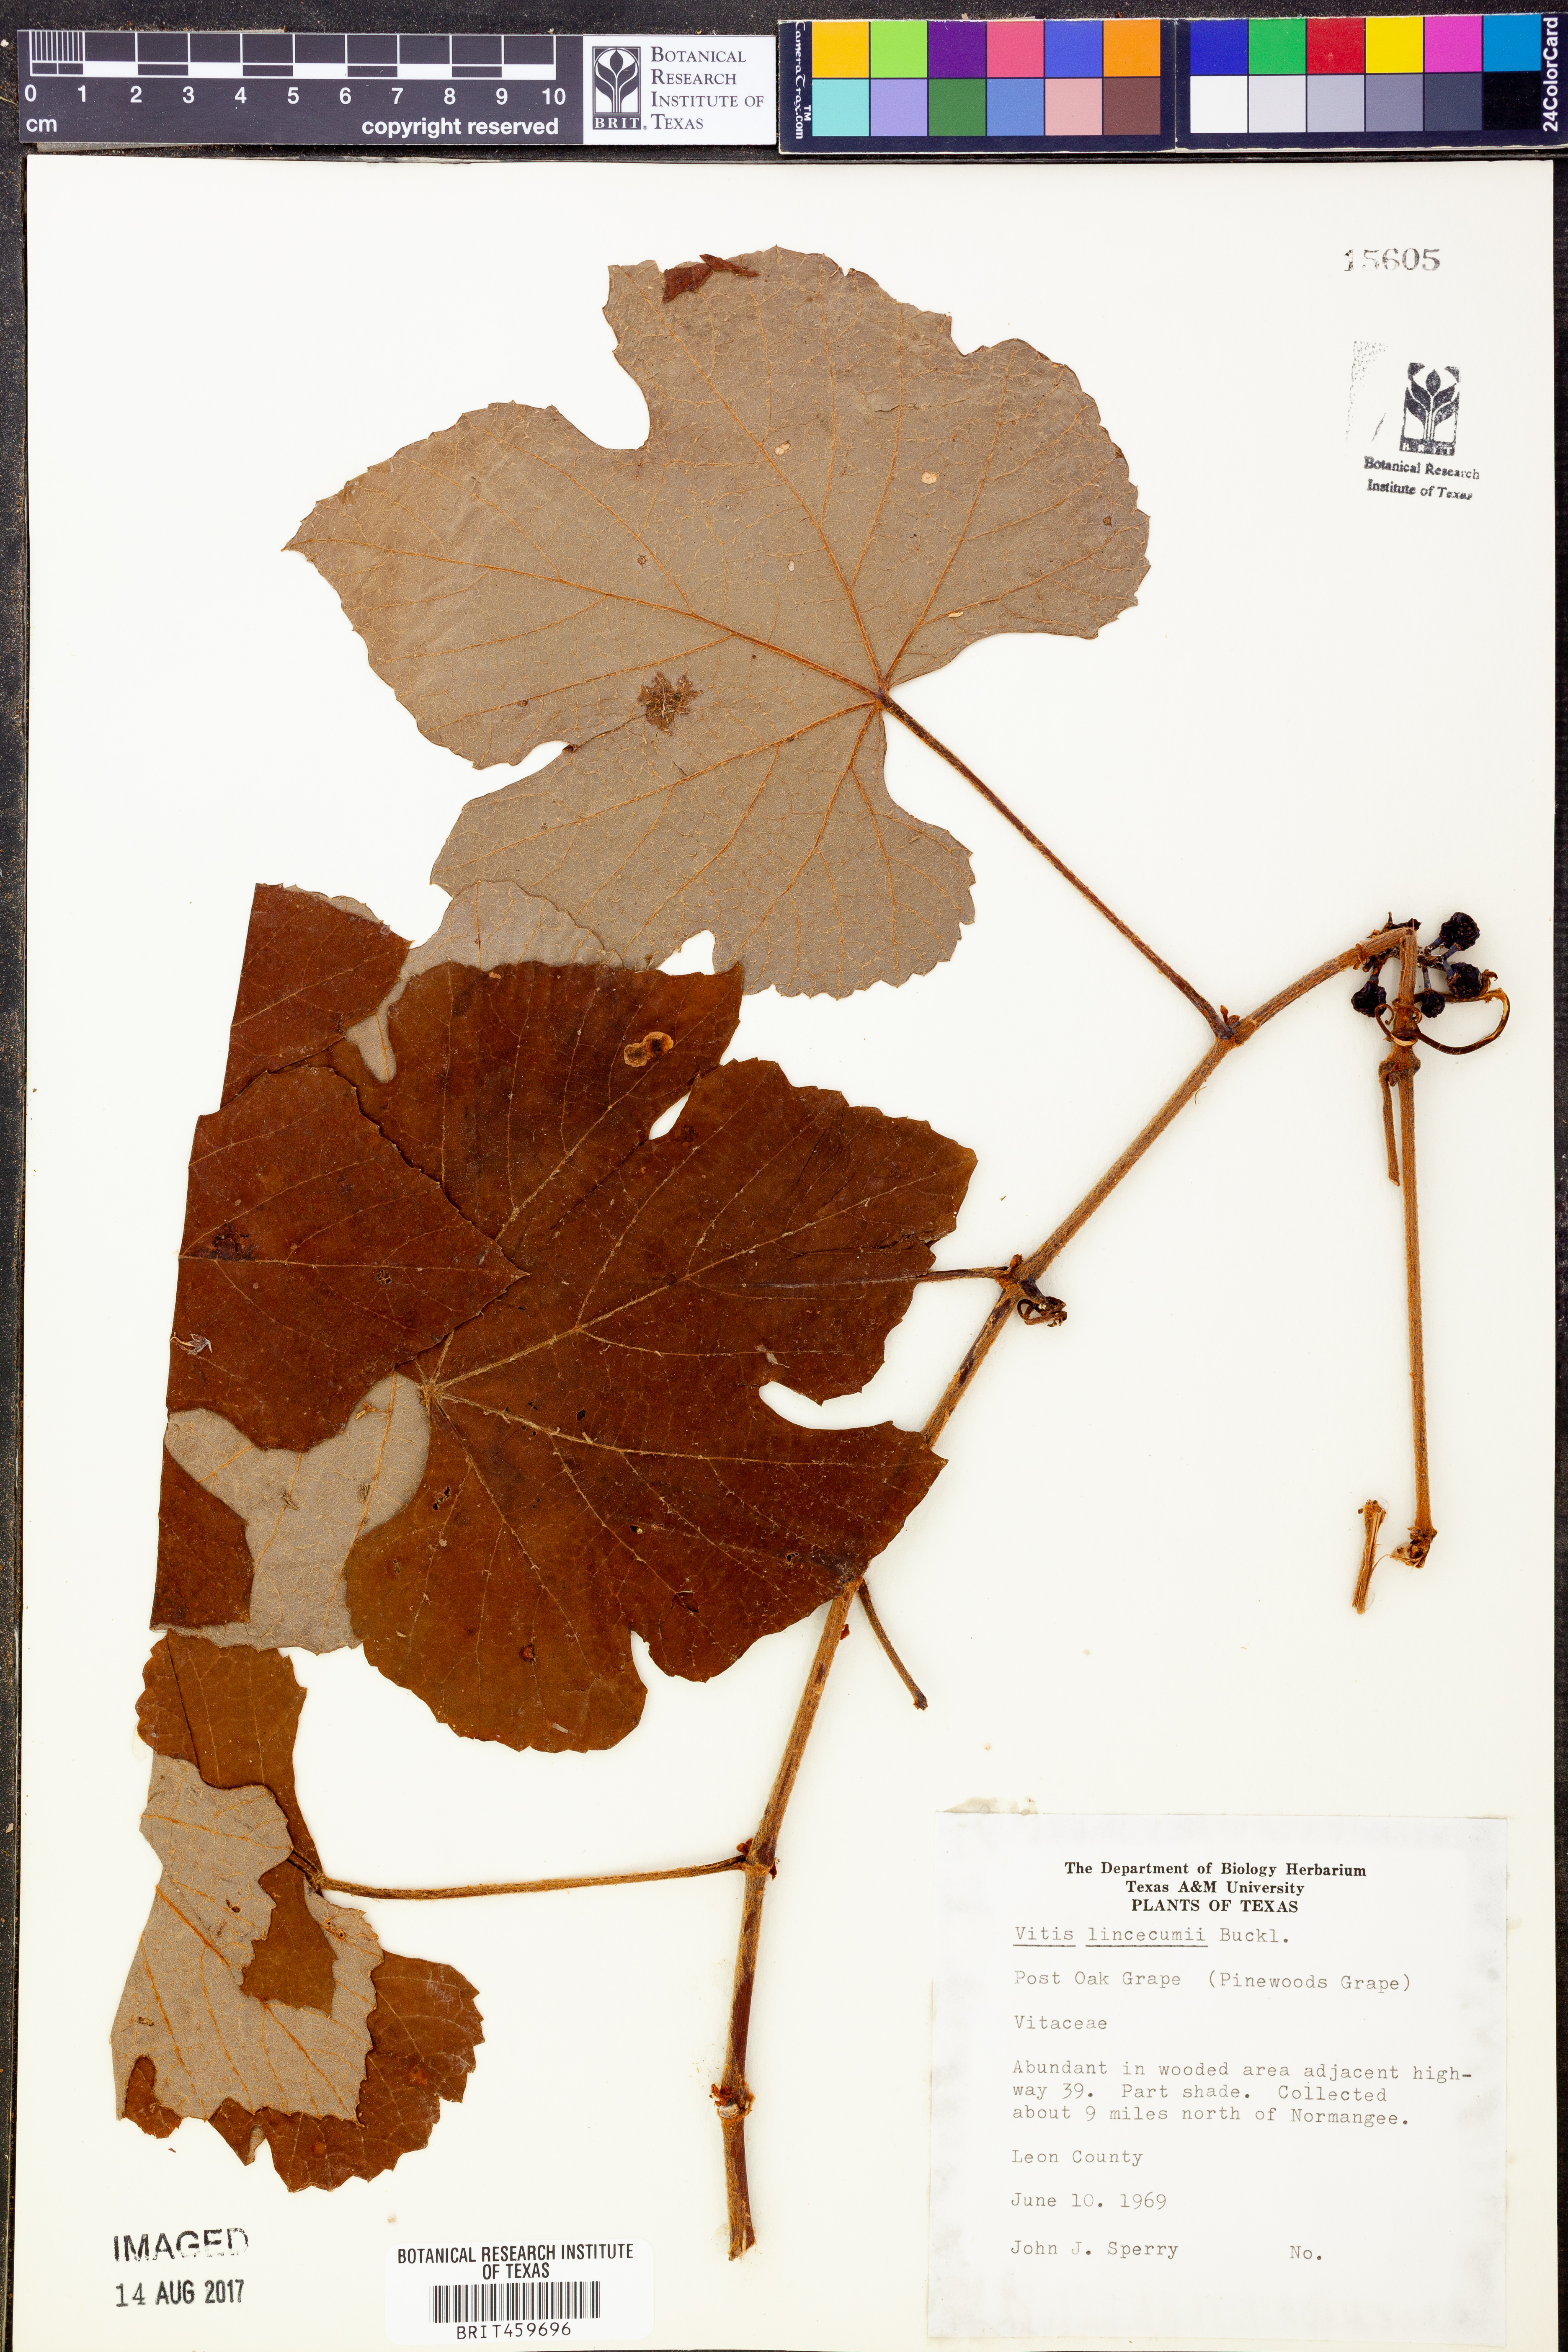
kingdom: Plantae
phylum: Tracheophyta
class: Magnoliopsida
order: Vitales
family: Vitaceae
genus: Vitis
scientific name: Vitis aestivalis
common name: Pigeon grape
